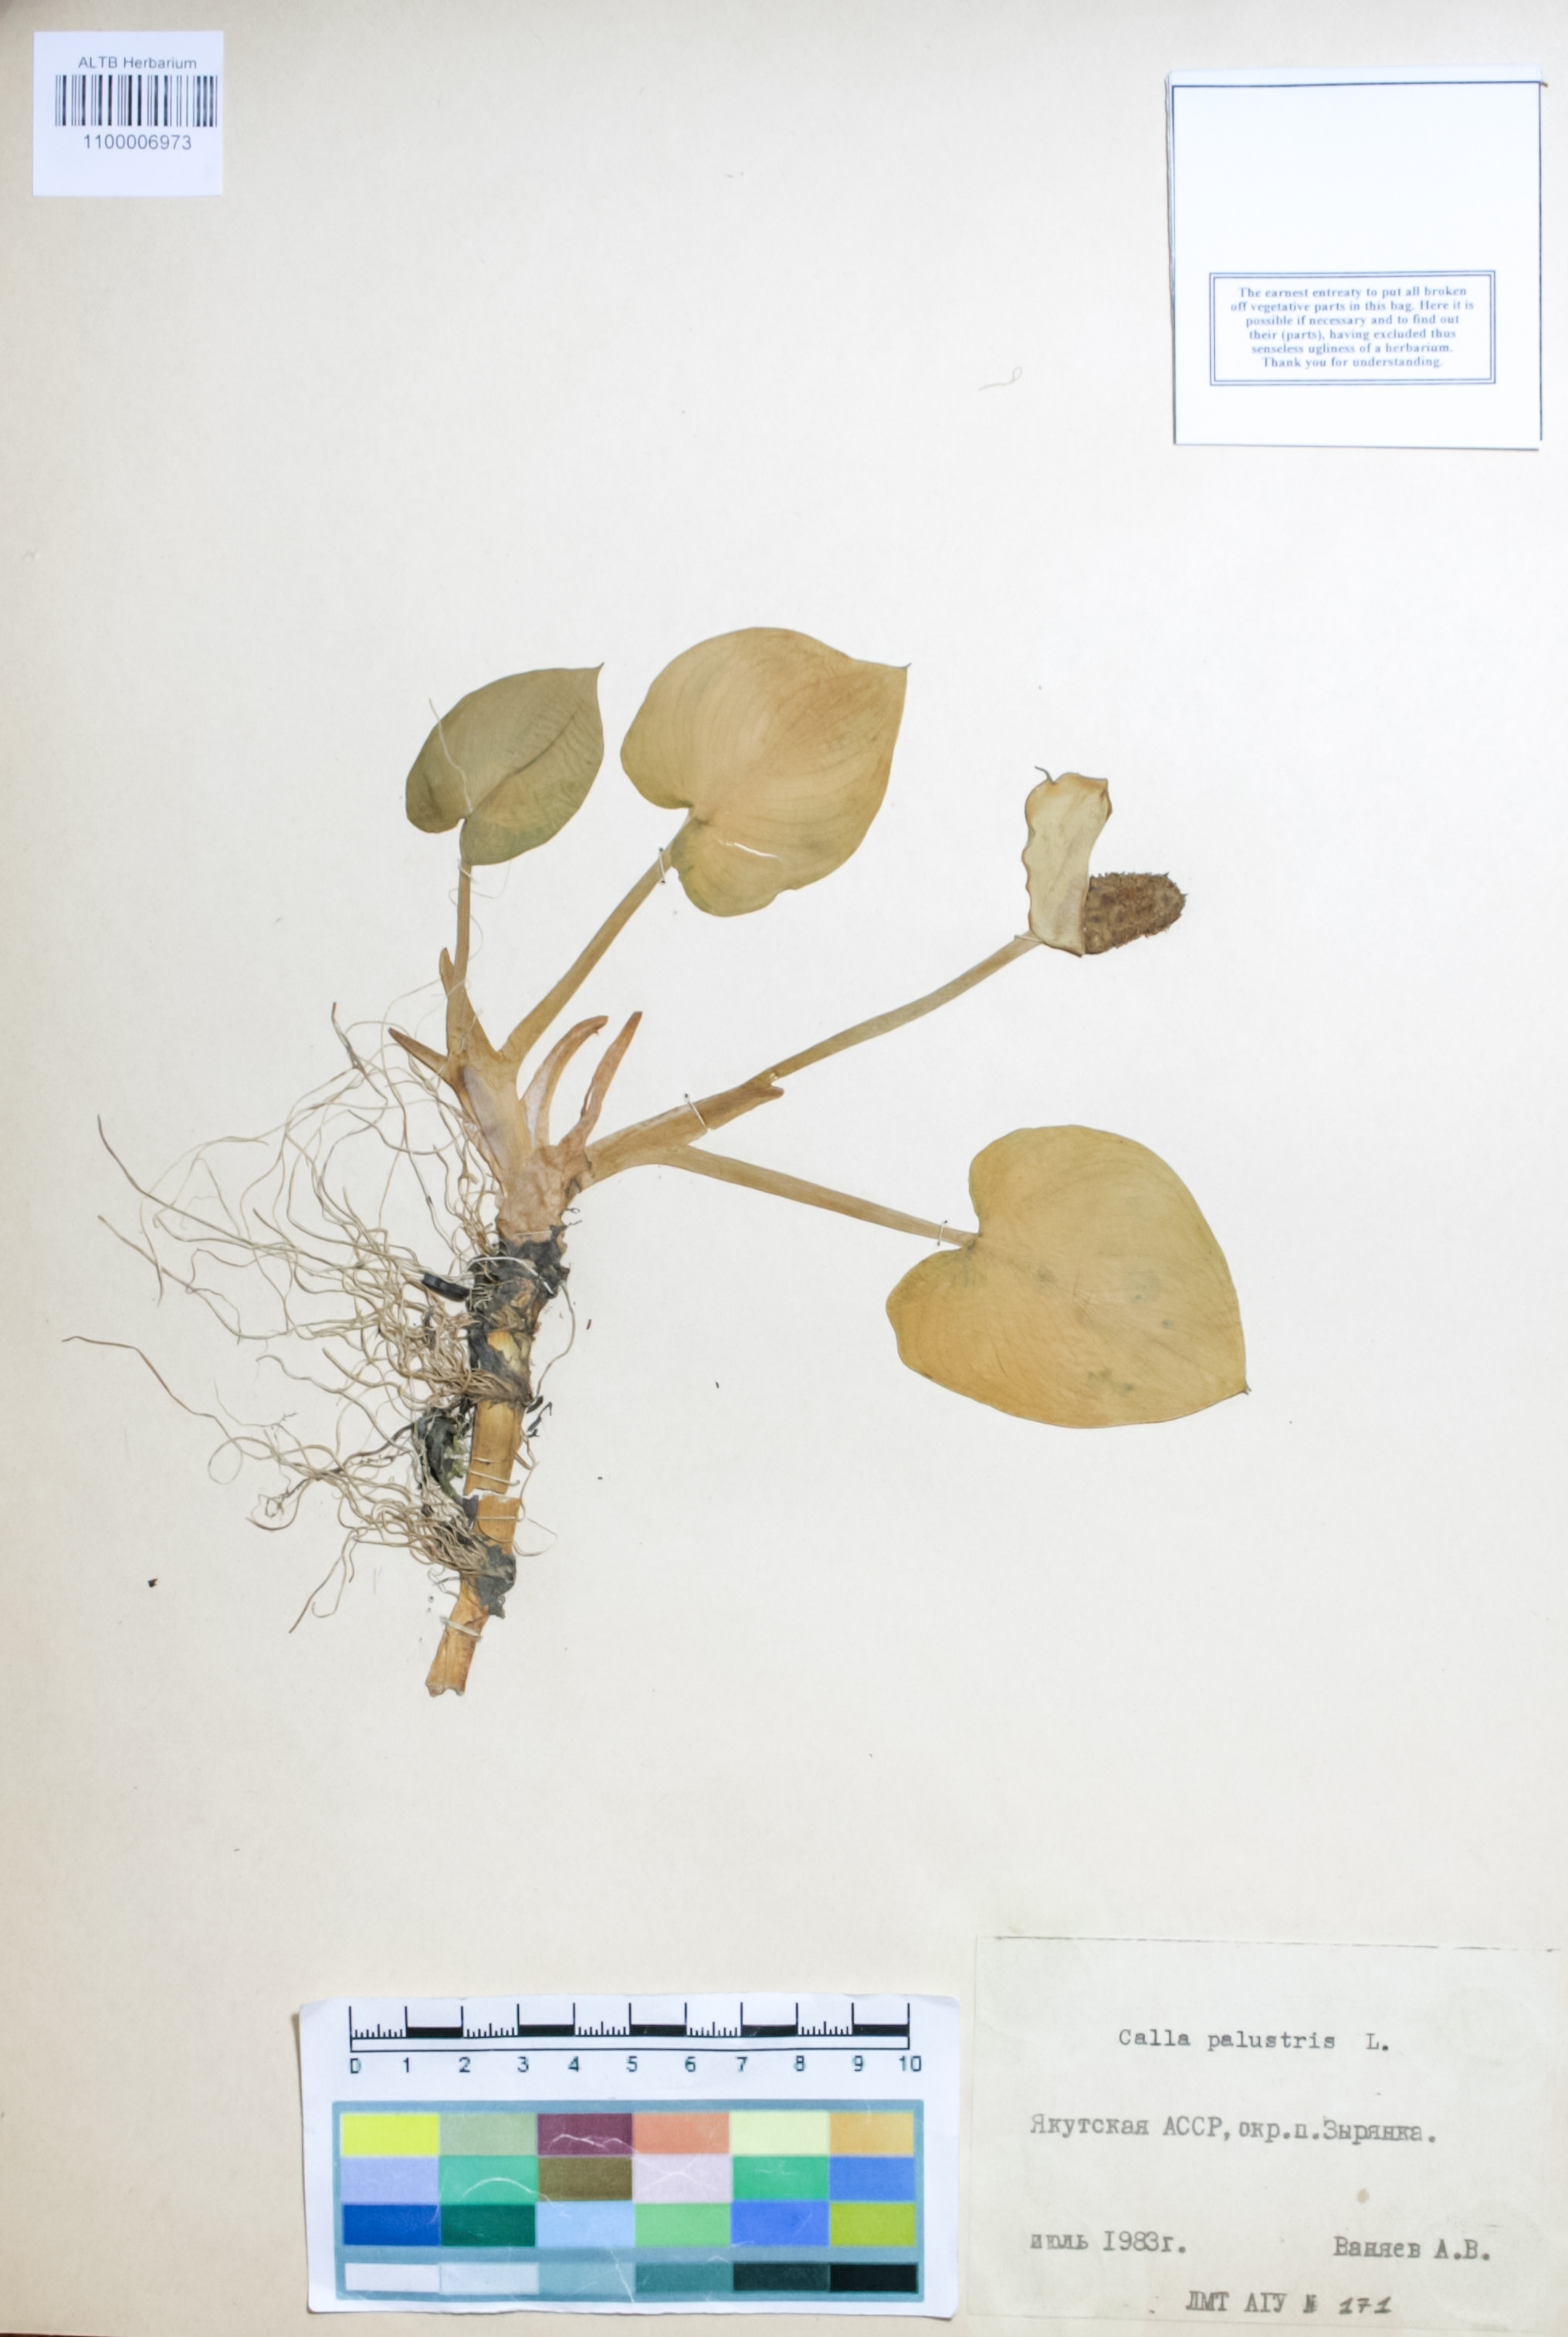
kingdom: Plantae
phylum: Tracheophyta
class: Liliopsida
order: Alismatales
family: Araceae
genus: Calla
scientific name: Calla palustris
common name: Bog arum
